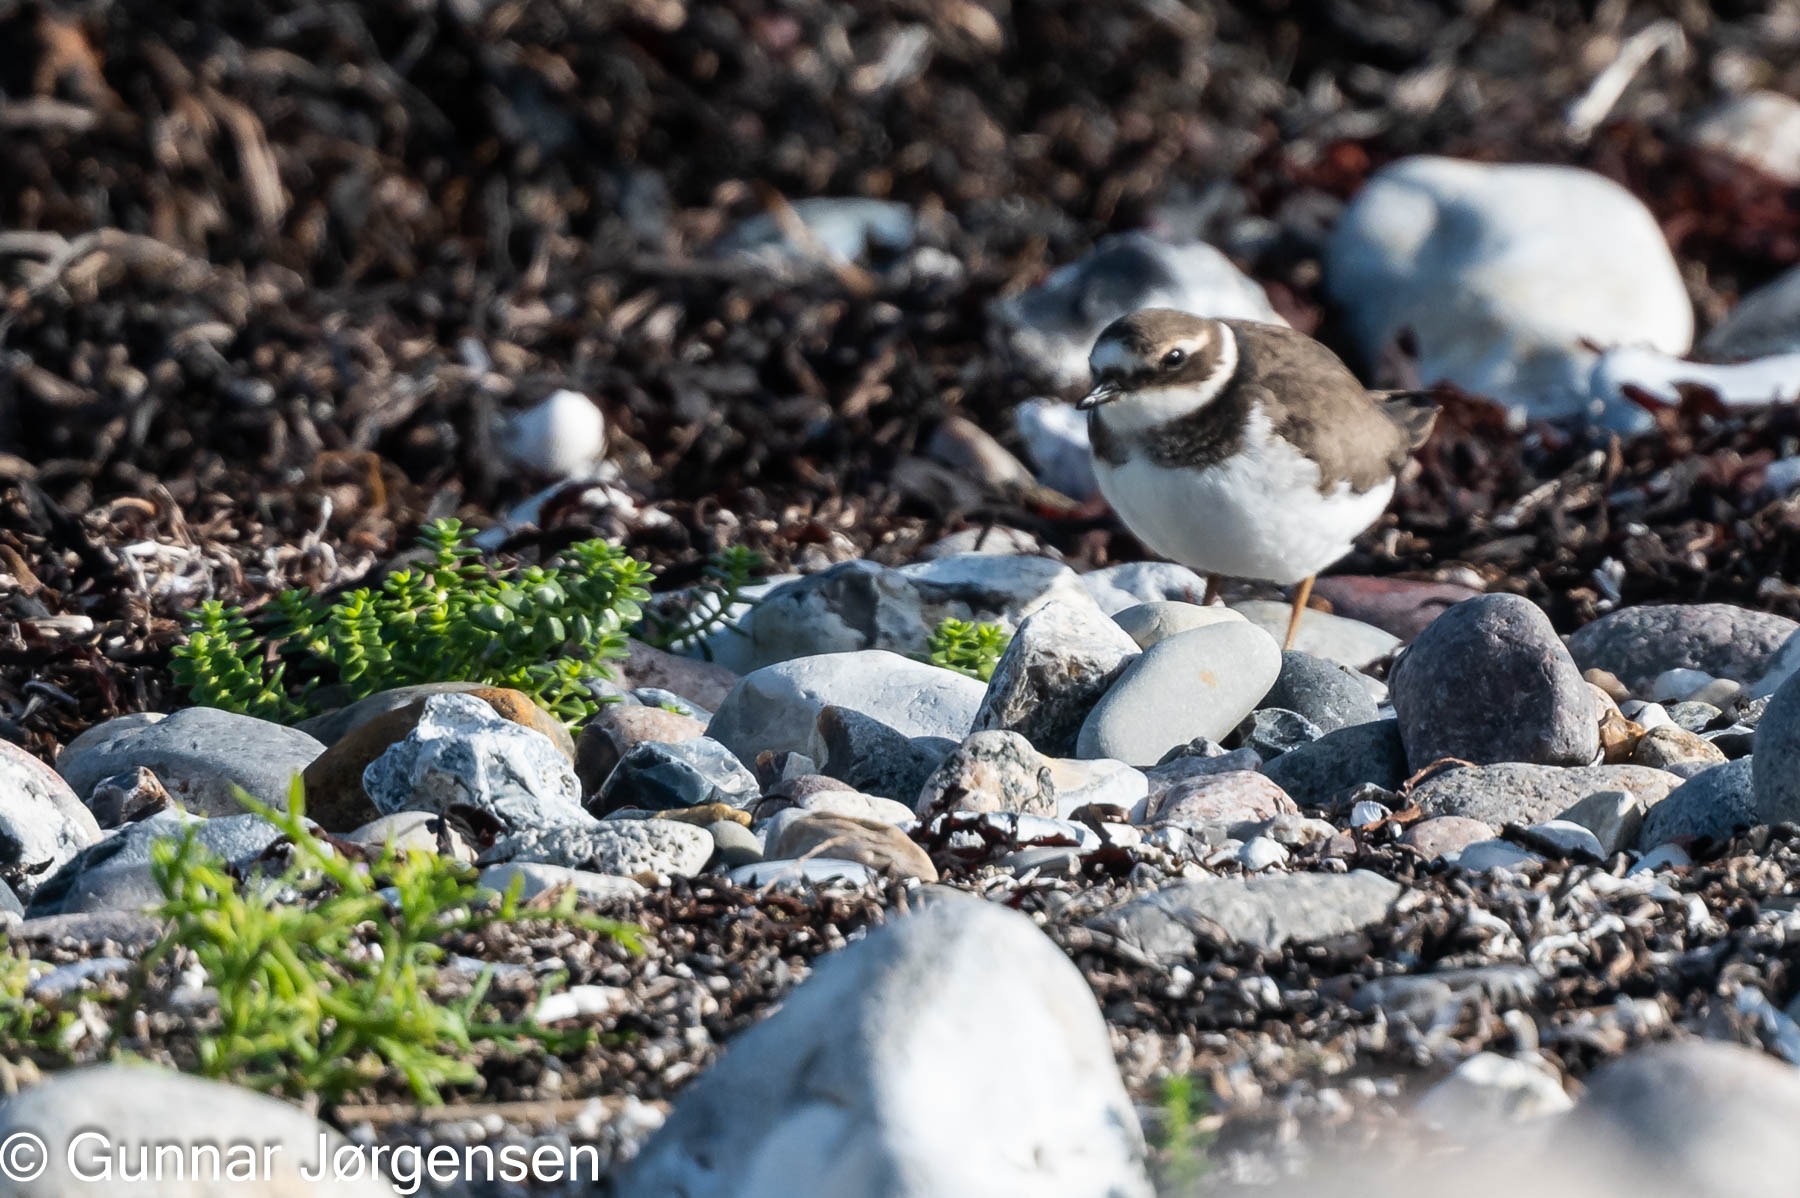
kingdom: Animalia
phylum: Chordata
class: Aves
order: Charadriiformes
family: Charadriidae
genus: Charadrius
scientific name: Charadrius hiaticula
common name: Stor præstekrave
